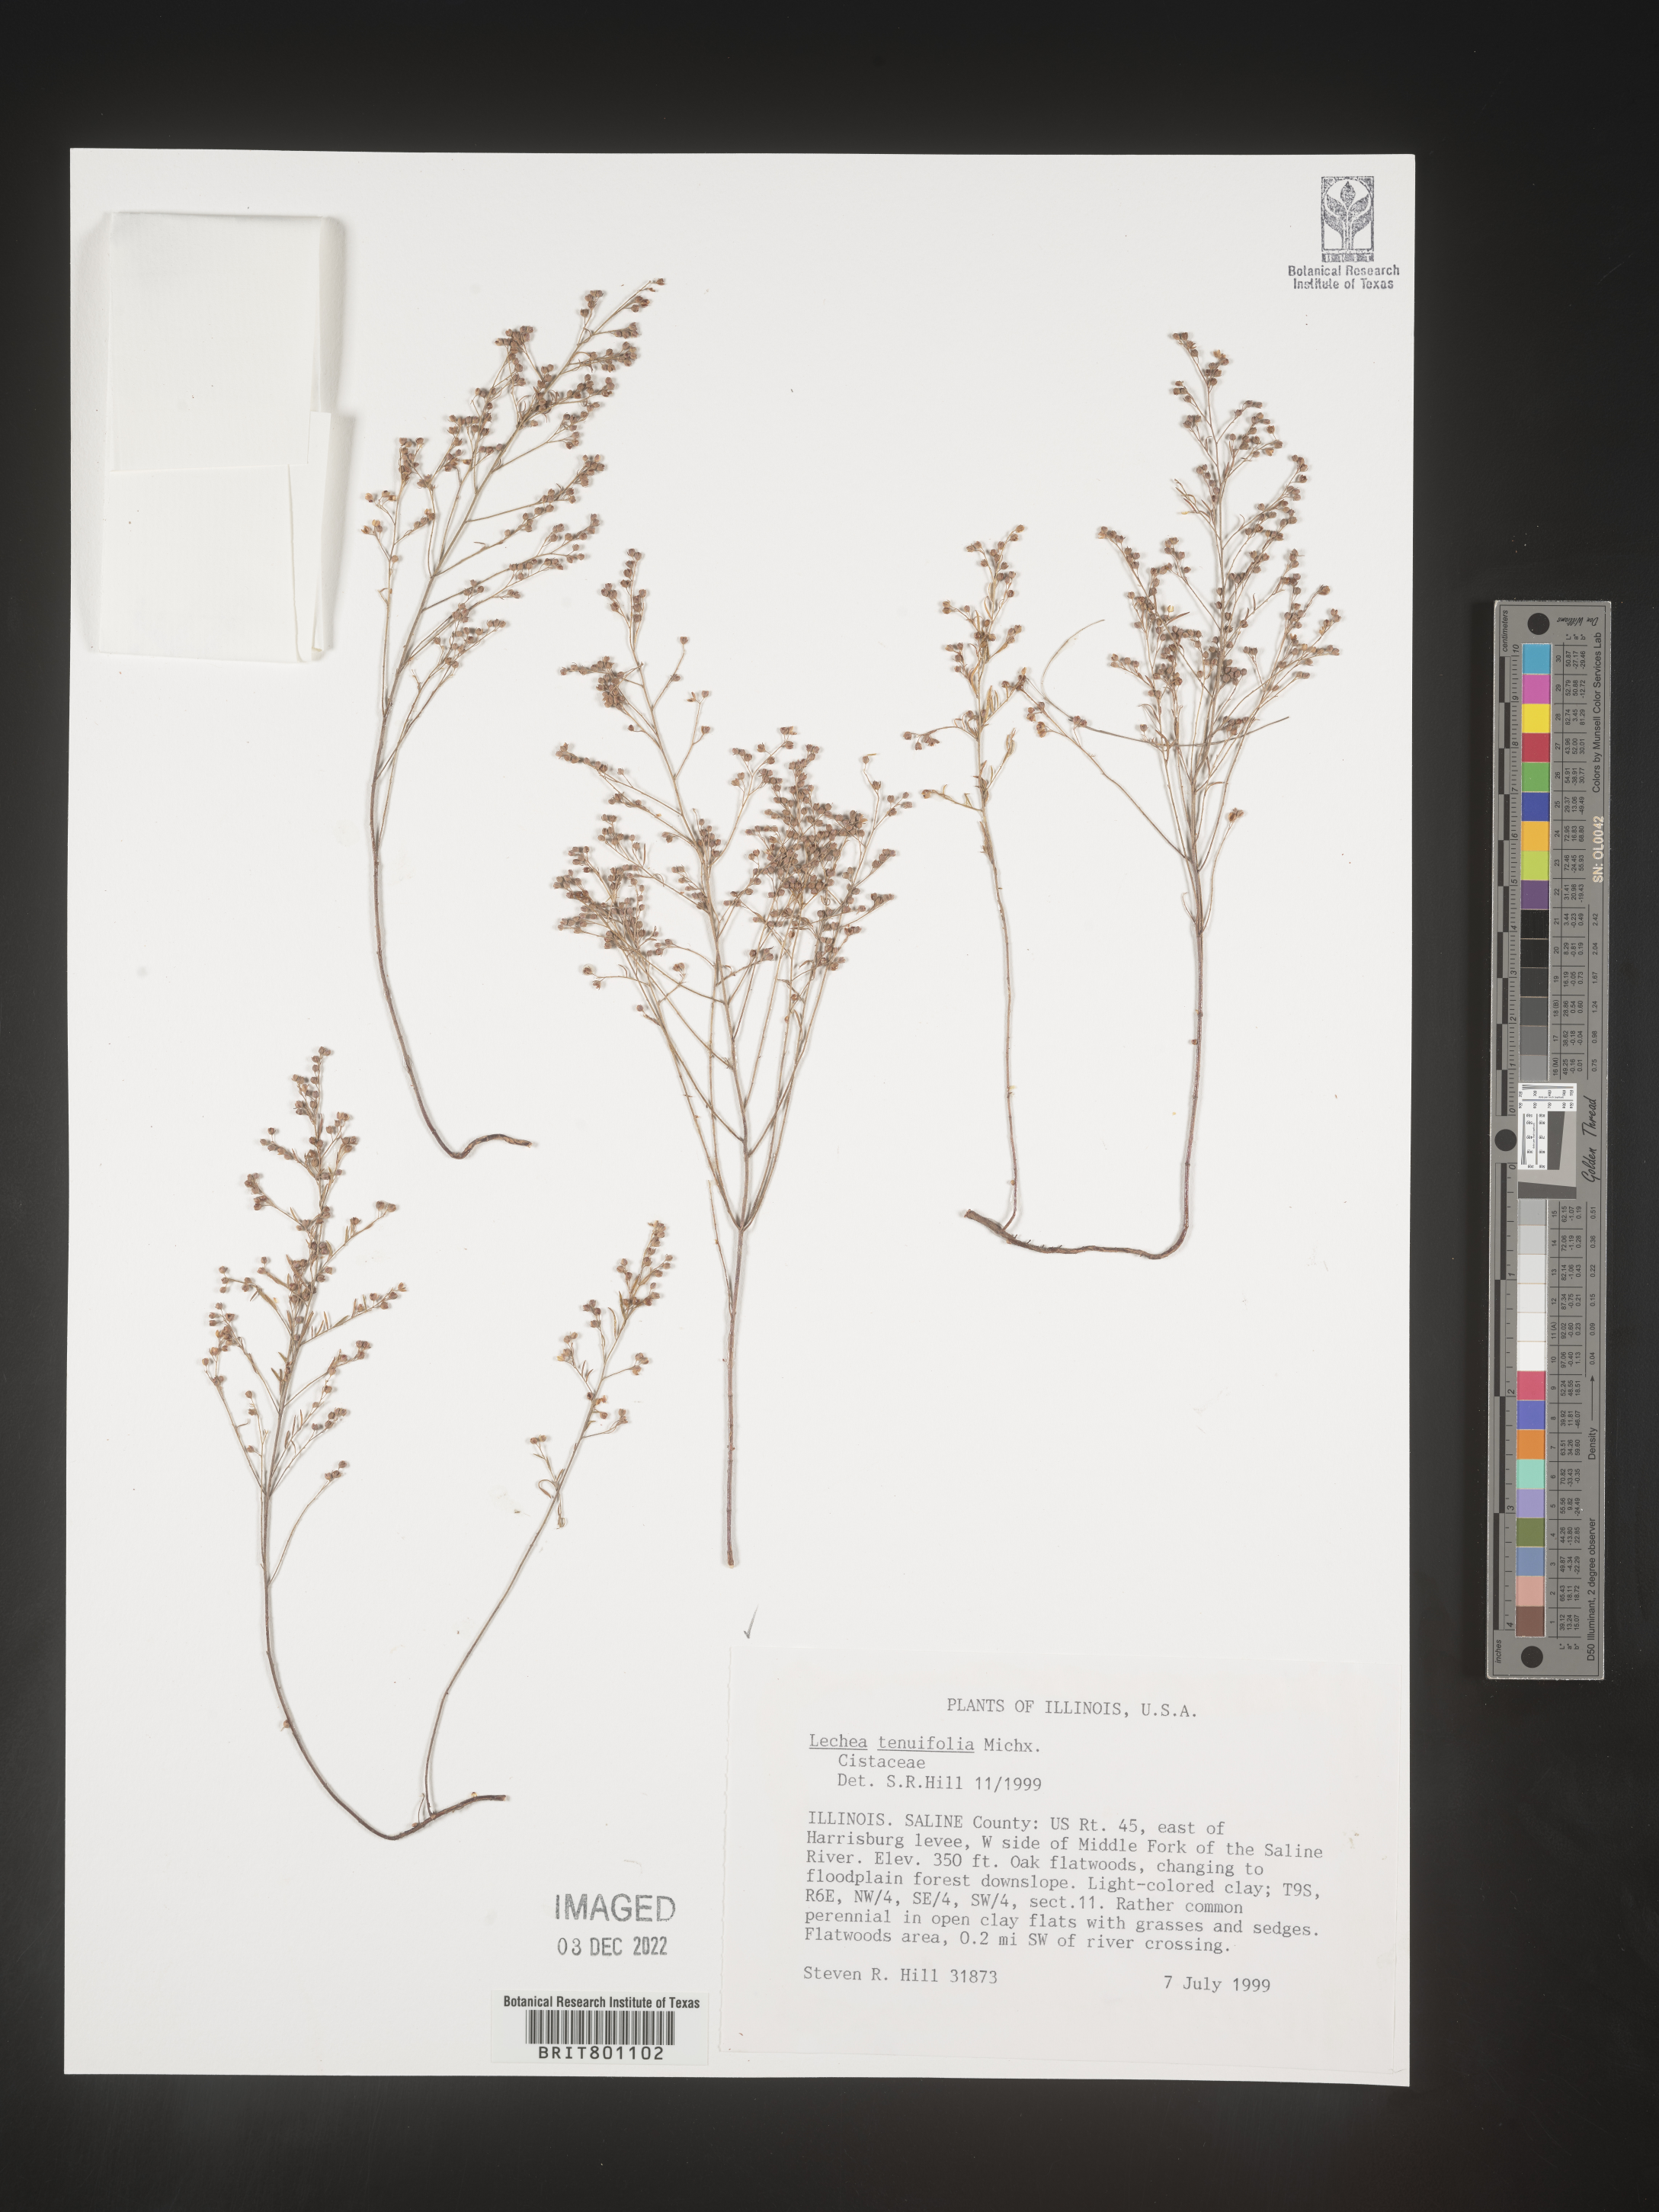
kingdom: Plantae
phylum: Tracheophyta
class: Magnoliopsida
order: Malvales
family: Cistaceae
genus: Lechea
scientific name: Lechea tenuifolia
